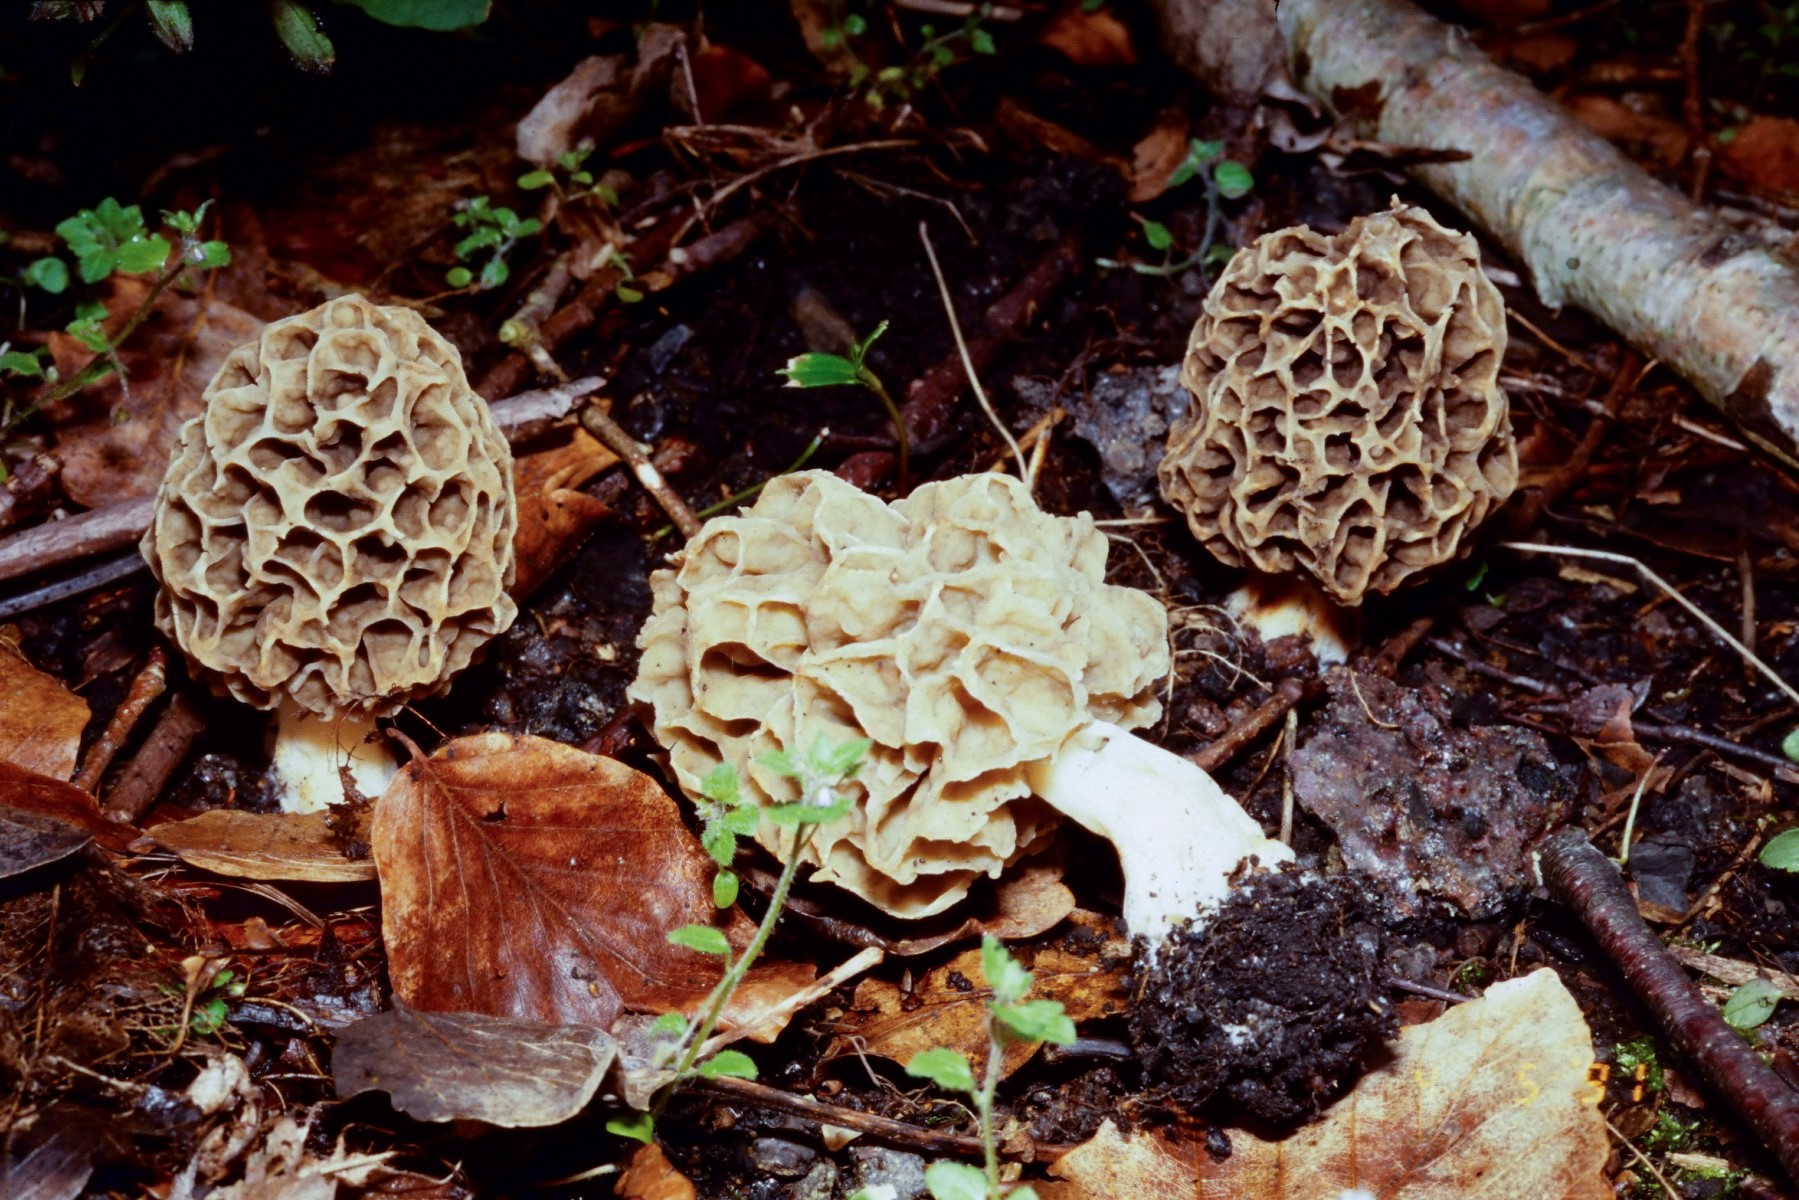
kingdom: Fungi
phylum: Ascomycota
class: Pezizomycetes
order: Pezizales
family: Morchellaceae
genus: Morchella
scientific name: Morchella esculenta
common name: almindelig morkel
